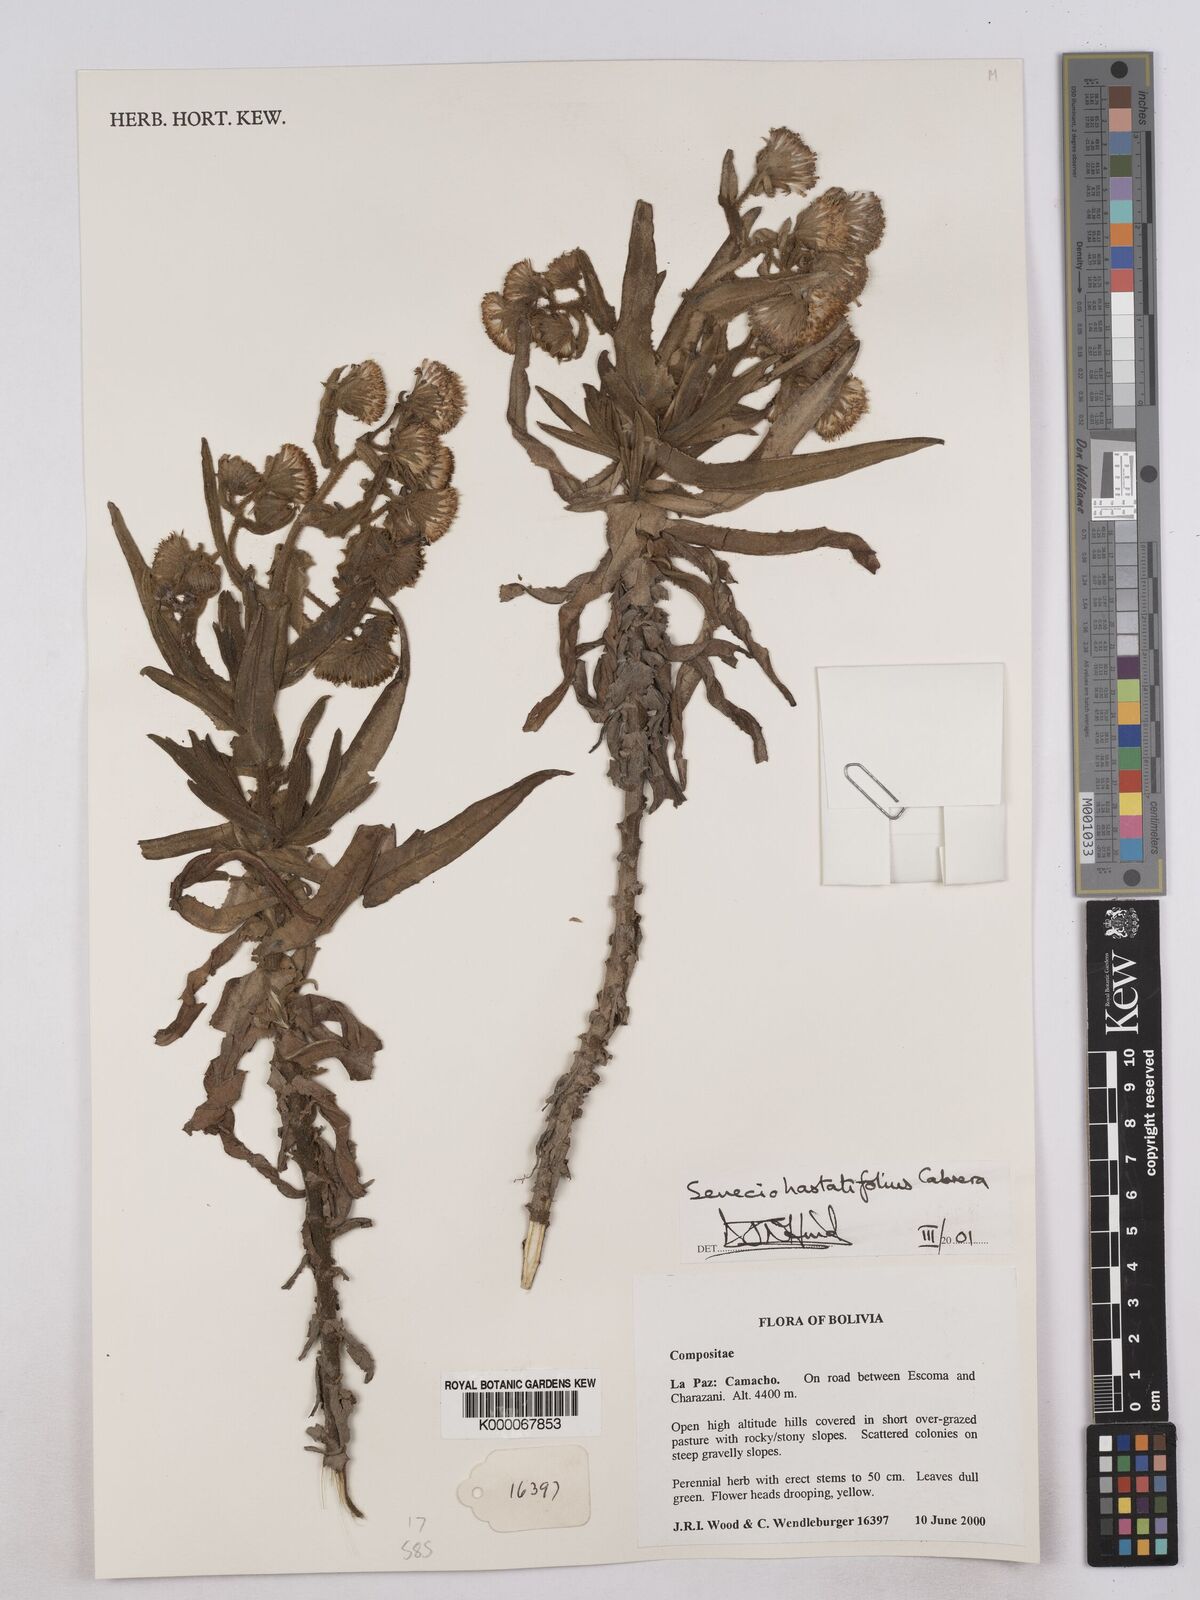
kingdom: Plantae
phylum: Tracheophyta
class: Magnoliopsida
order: Asterales
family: Asteraceae
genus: Senecio
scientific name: Senecio hastatifolius
